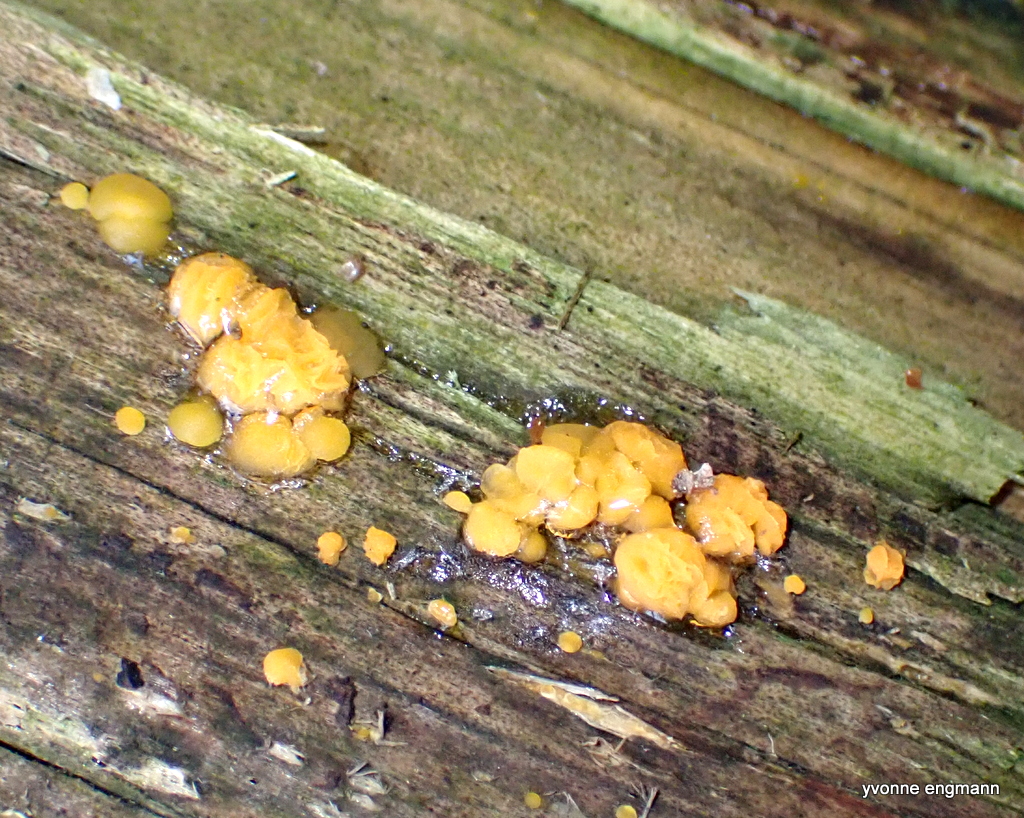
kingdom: Fungi
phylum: Basidiomycota
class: Dacrymycetes
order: Dacrymycetales
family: Dacrymycetaceae
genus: Dacrymyces
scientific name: Dacrymyces stillatus
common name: almindelig tåresvamp
